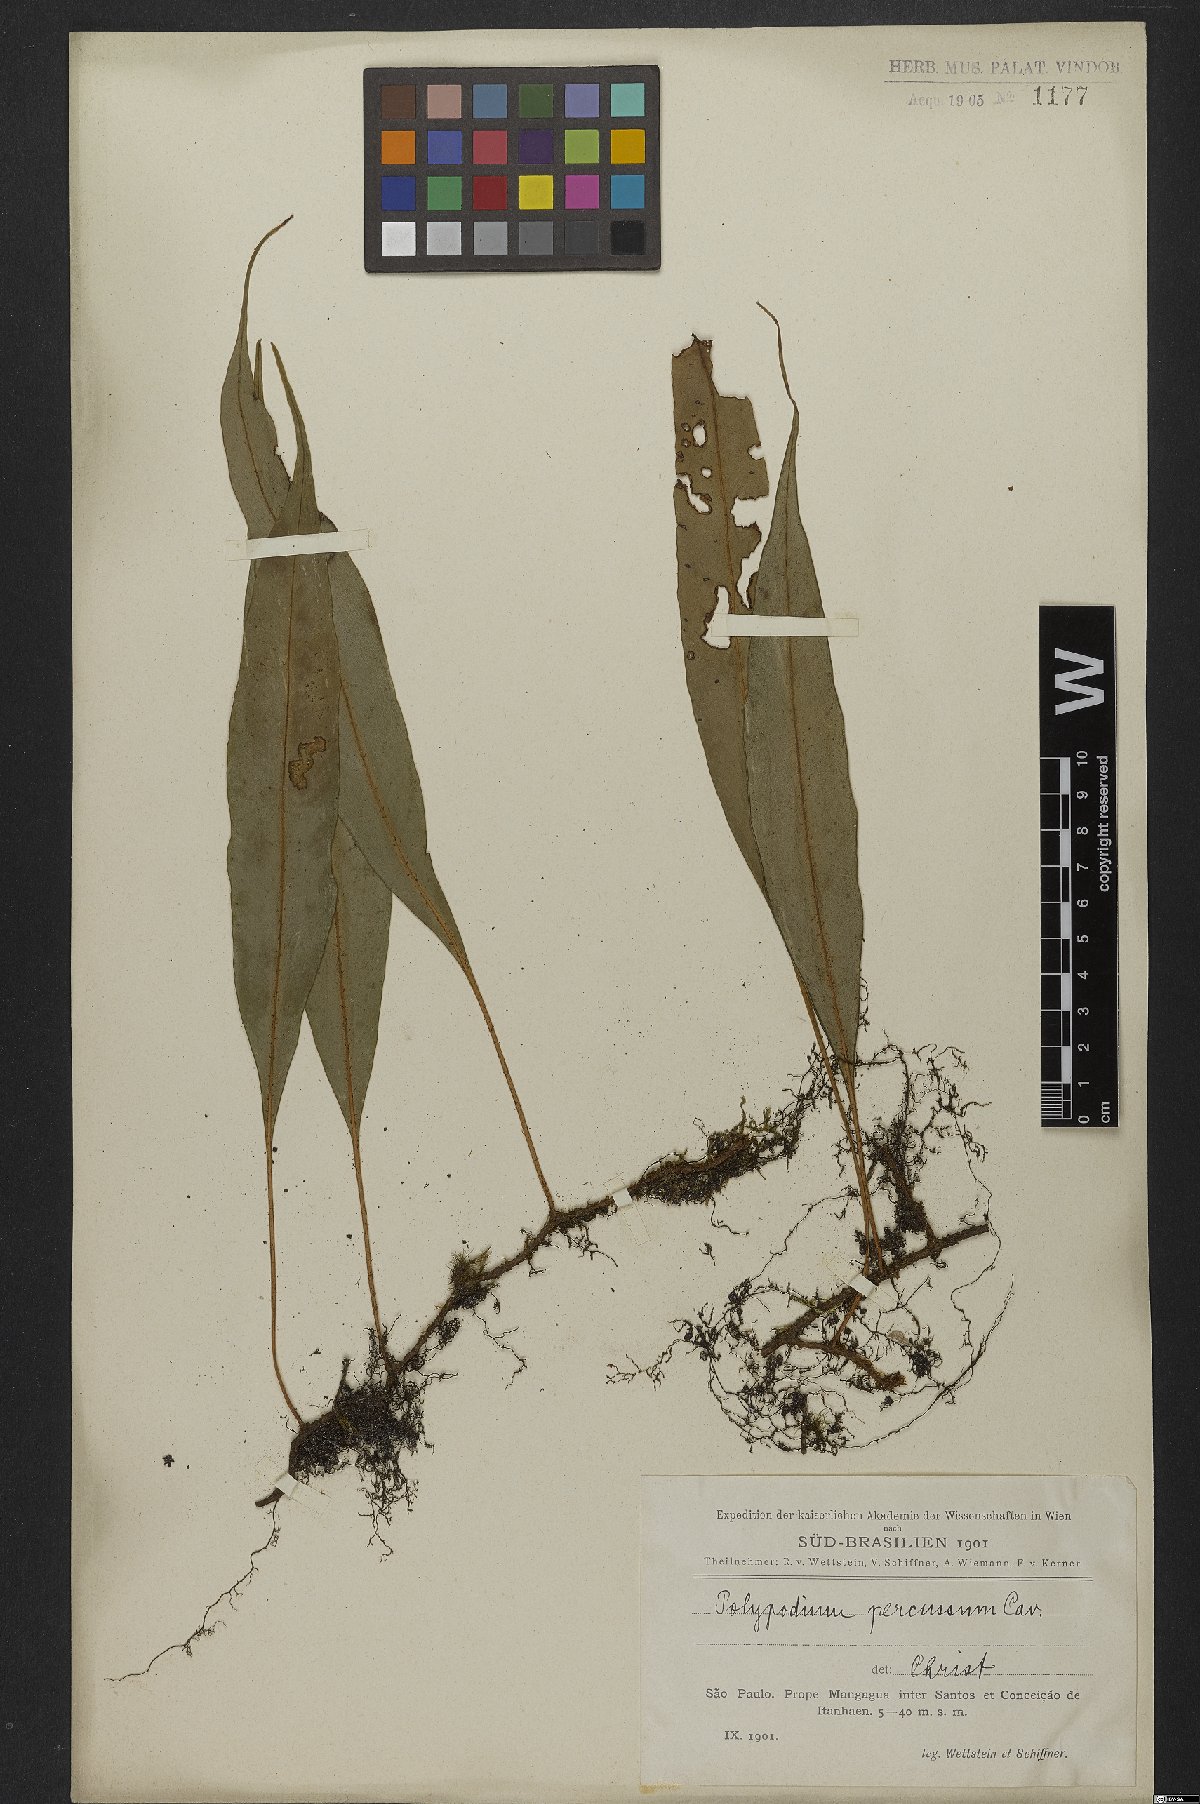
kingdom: Plantae
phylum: Tracheophyta
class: Polypodiopsida
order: Polypodiales
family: Polypodiaceae
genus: Microgramma
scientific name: Microgramma percussa
